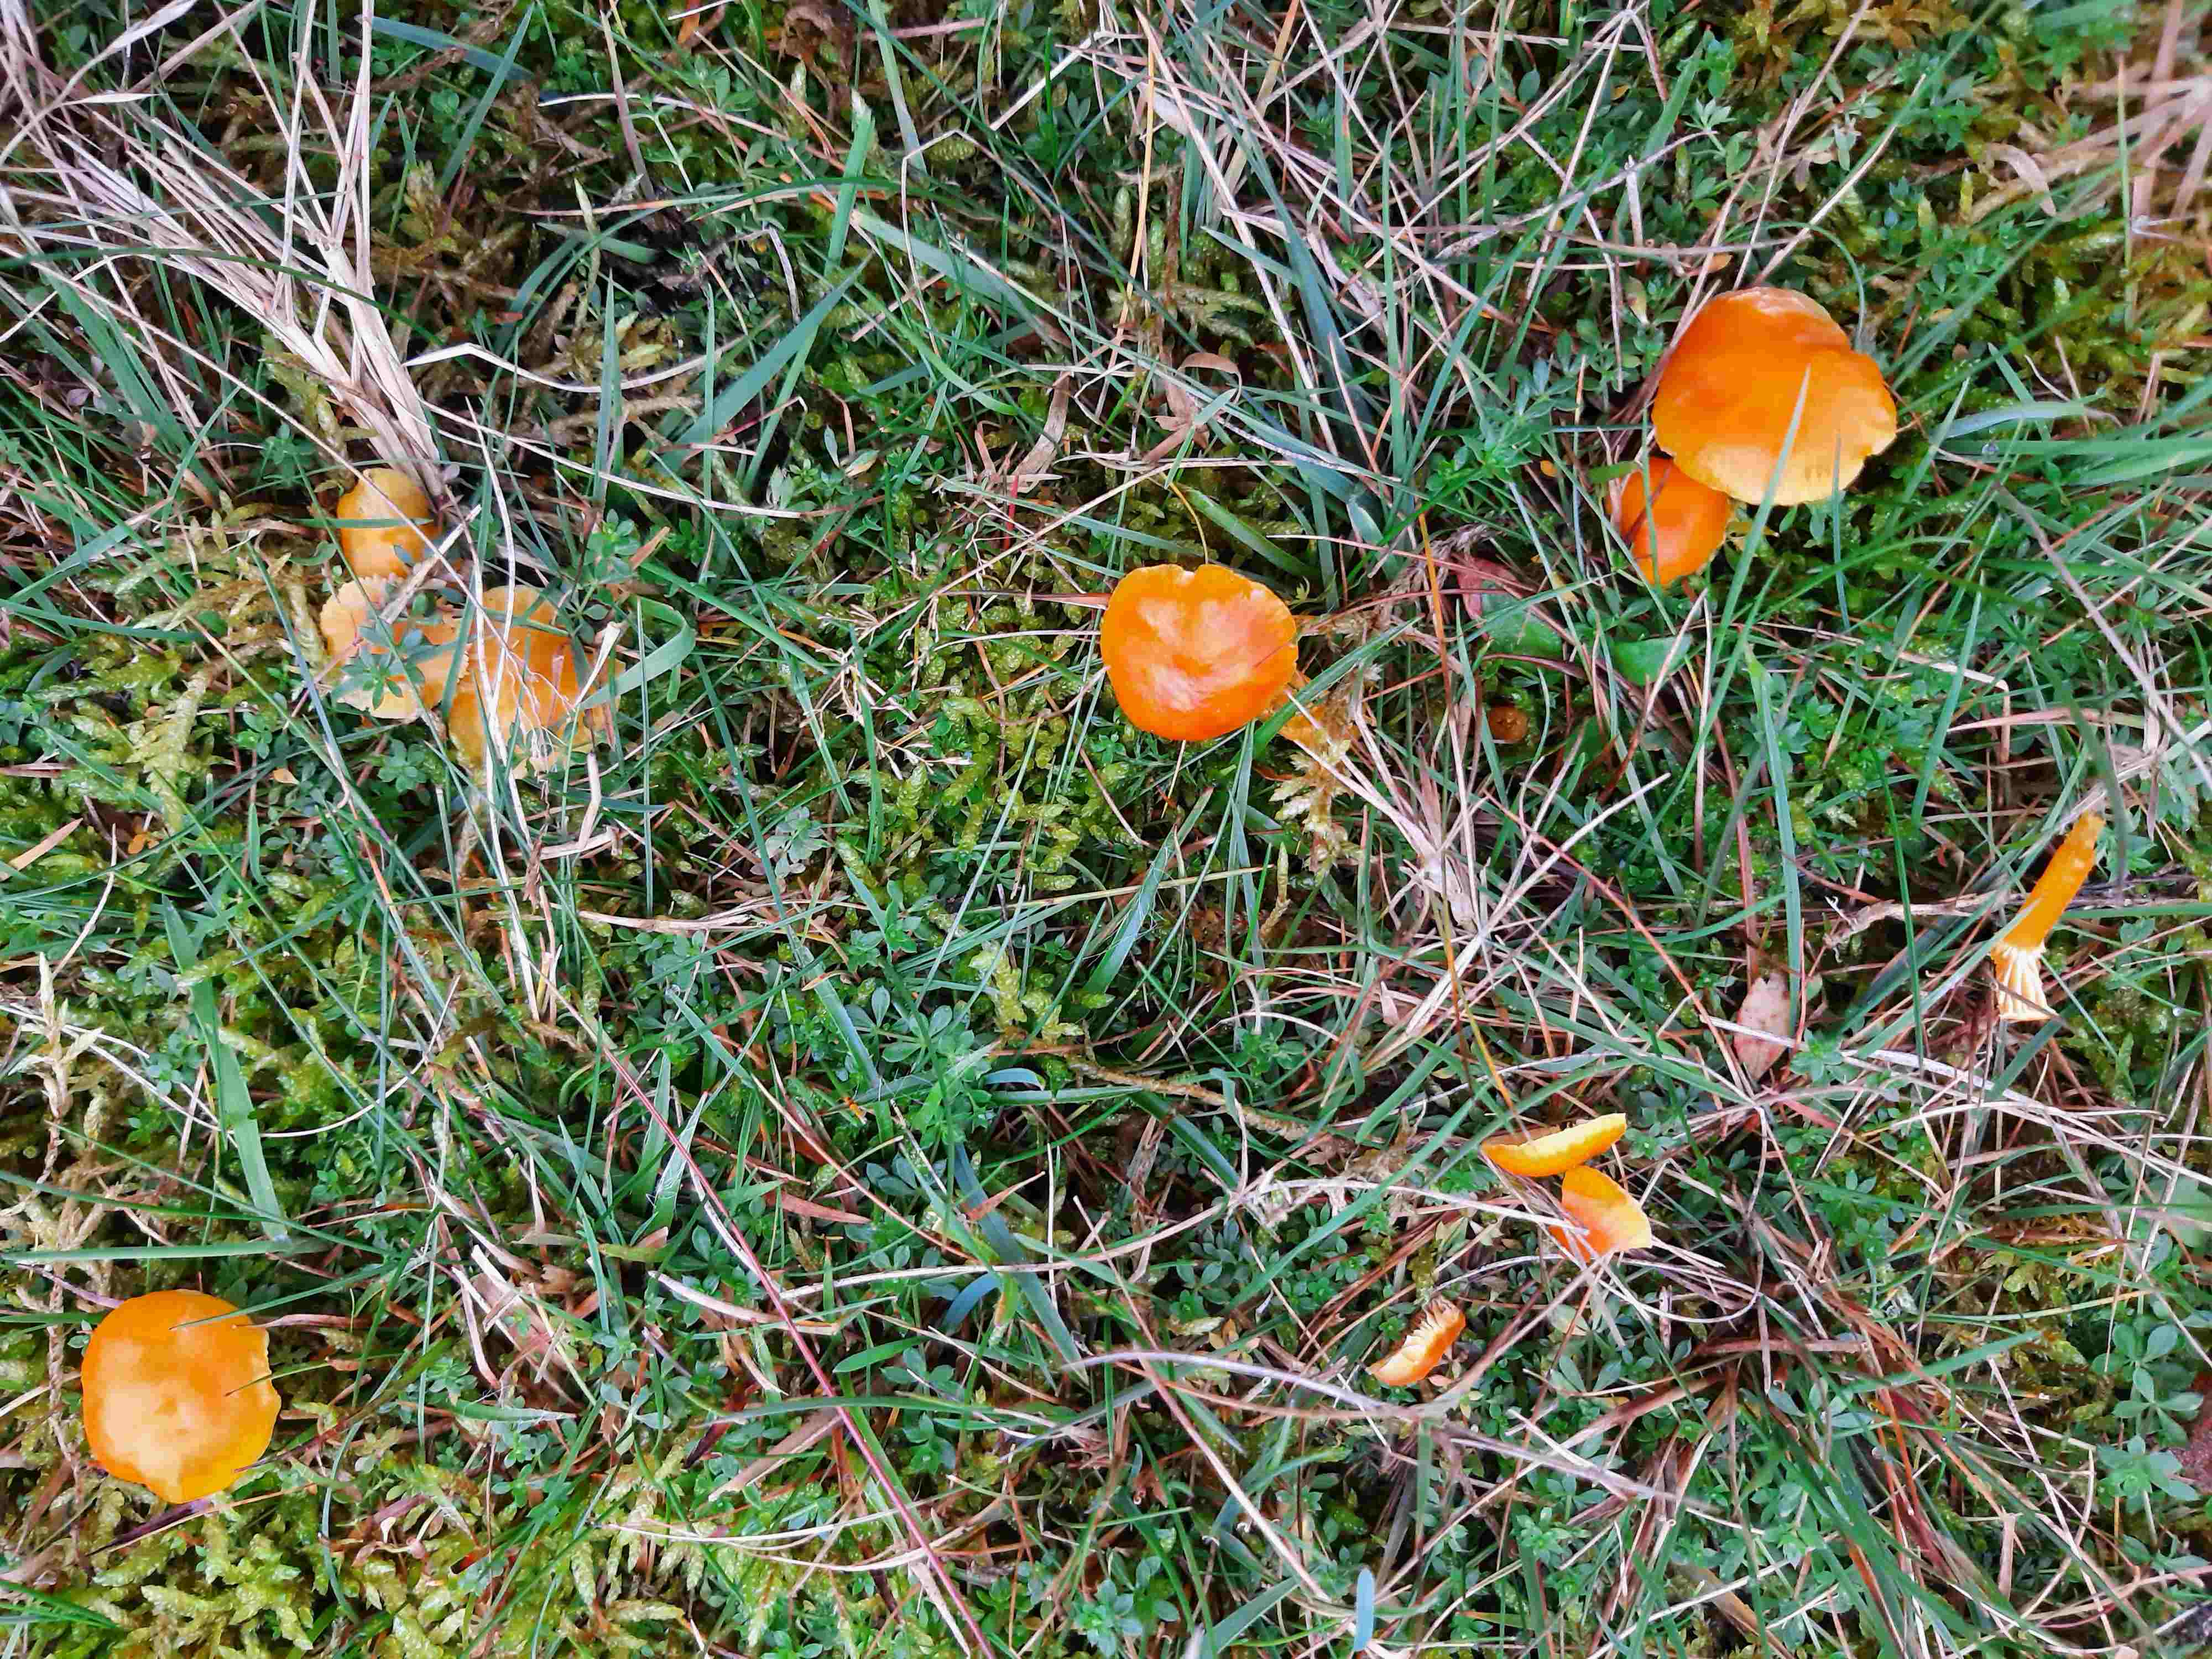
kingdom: Fungi
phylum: Basidiomycota
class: Agaricomycetes
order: Agaricales
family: Hygrophoraceae
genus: Hygrocybe
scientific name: Hygrocybe ceracea
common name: voksgul vokshat
